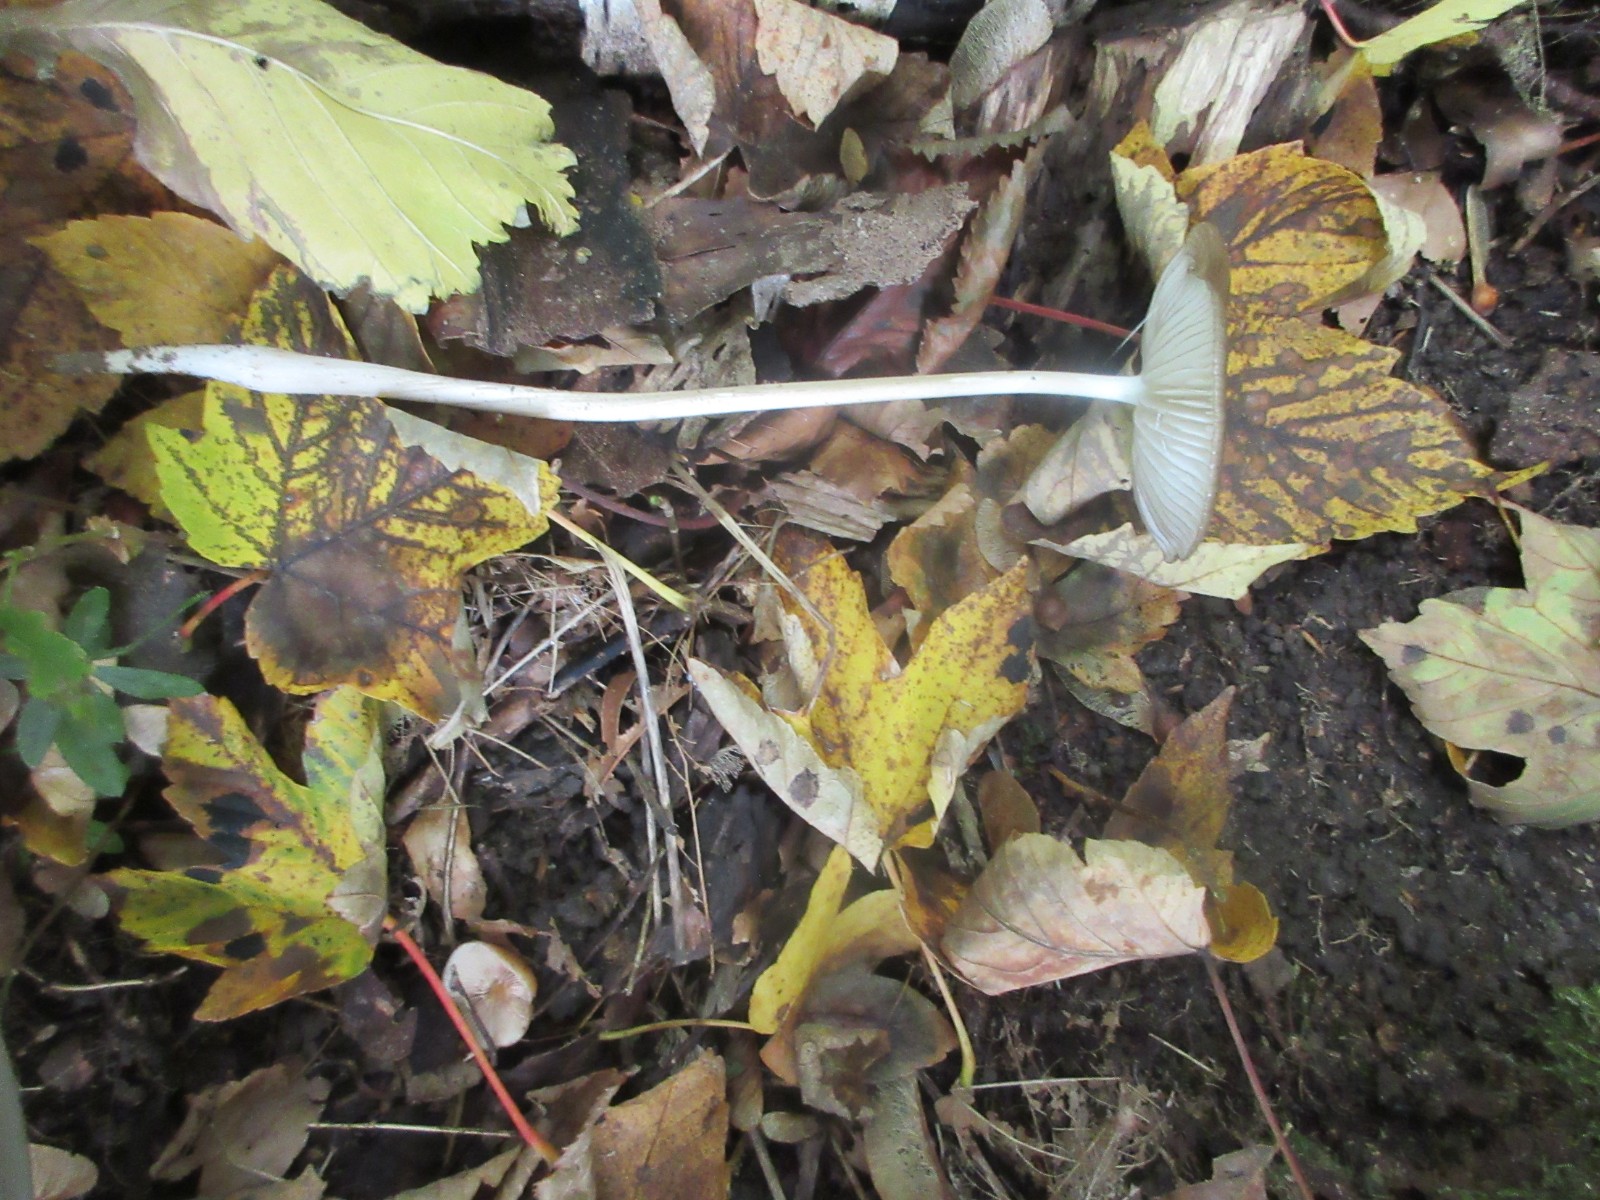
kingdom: Fungi
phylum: Basidiomycota
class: Agaricomycetes
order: Agaricales
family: Physalacriaceae
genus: Hymenopellis
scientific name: Hymenopellis radicata
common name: almindelig pælerodshat
